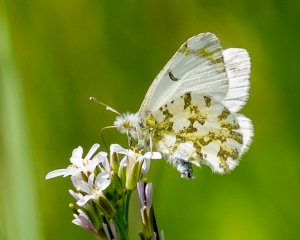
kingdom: Animalia
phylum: Arthropoda
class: Insecta
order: Lepidoptera
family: Pieridae
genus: Euchloe
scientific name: Euchloe ausonides
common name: Large Marble
